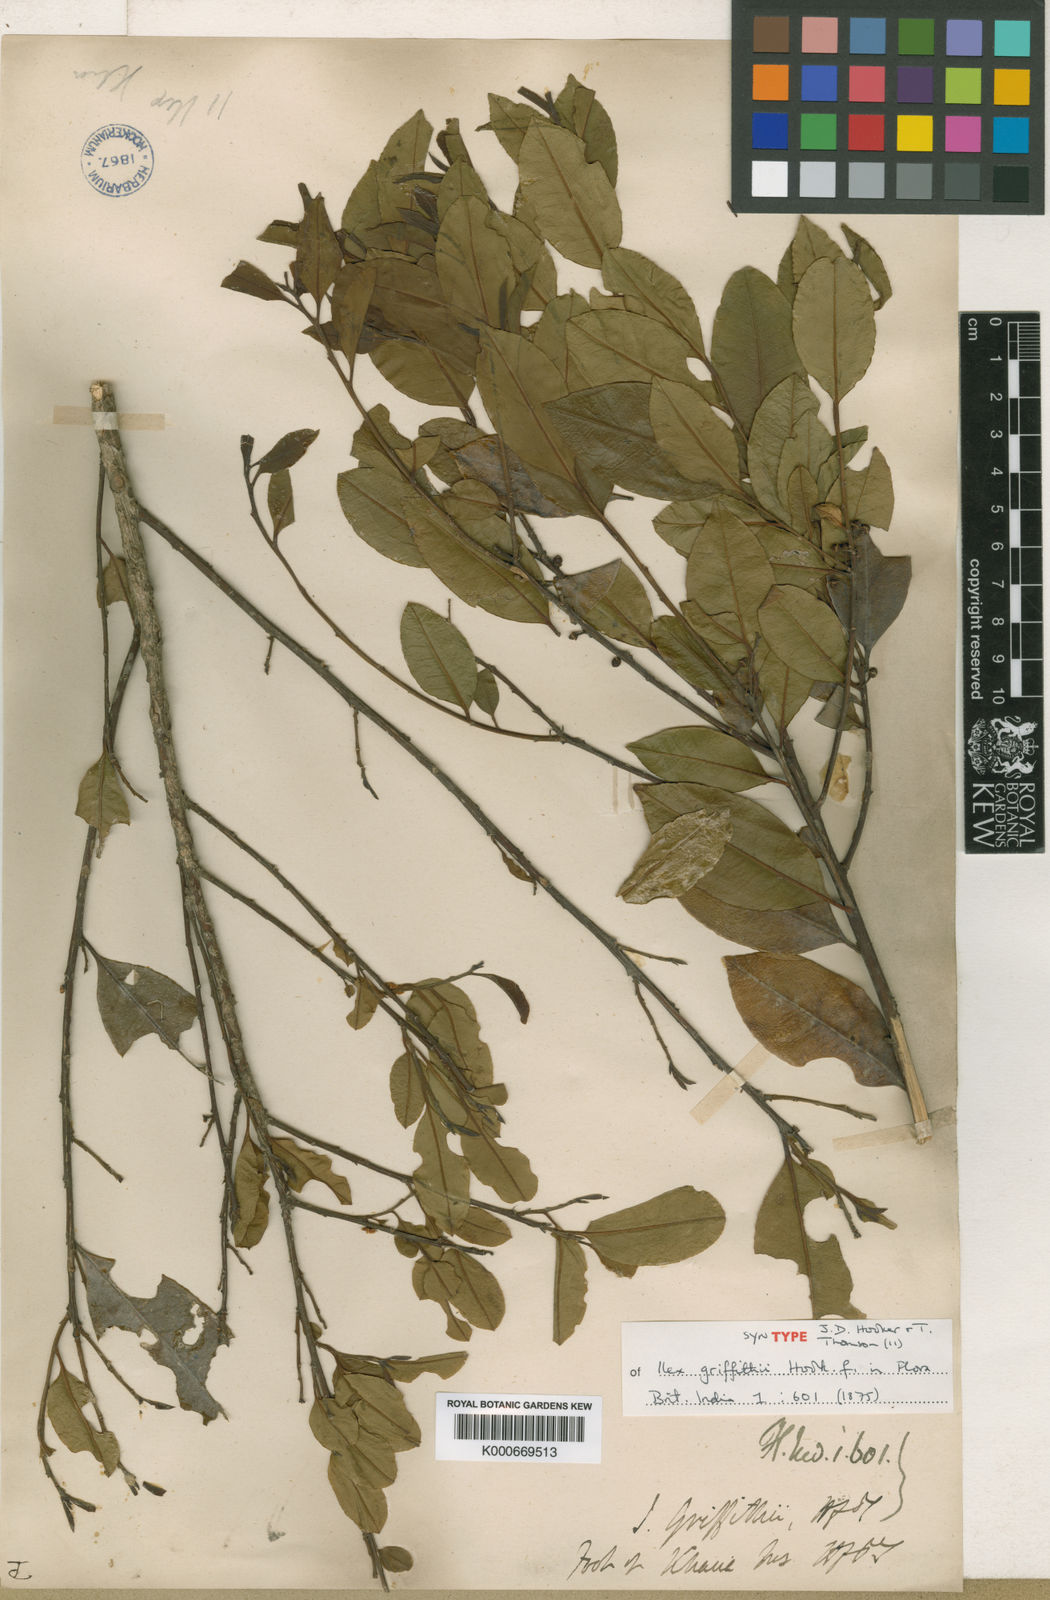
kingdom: Plantae
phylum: Tracheophyta
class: Magnoliopsida
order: Aquifoliales
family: Aquifoliaceae
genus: Ilex
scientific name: Ilex triflora
